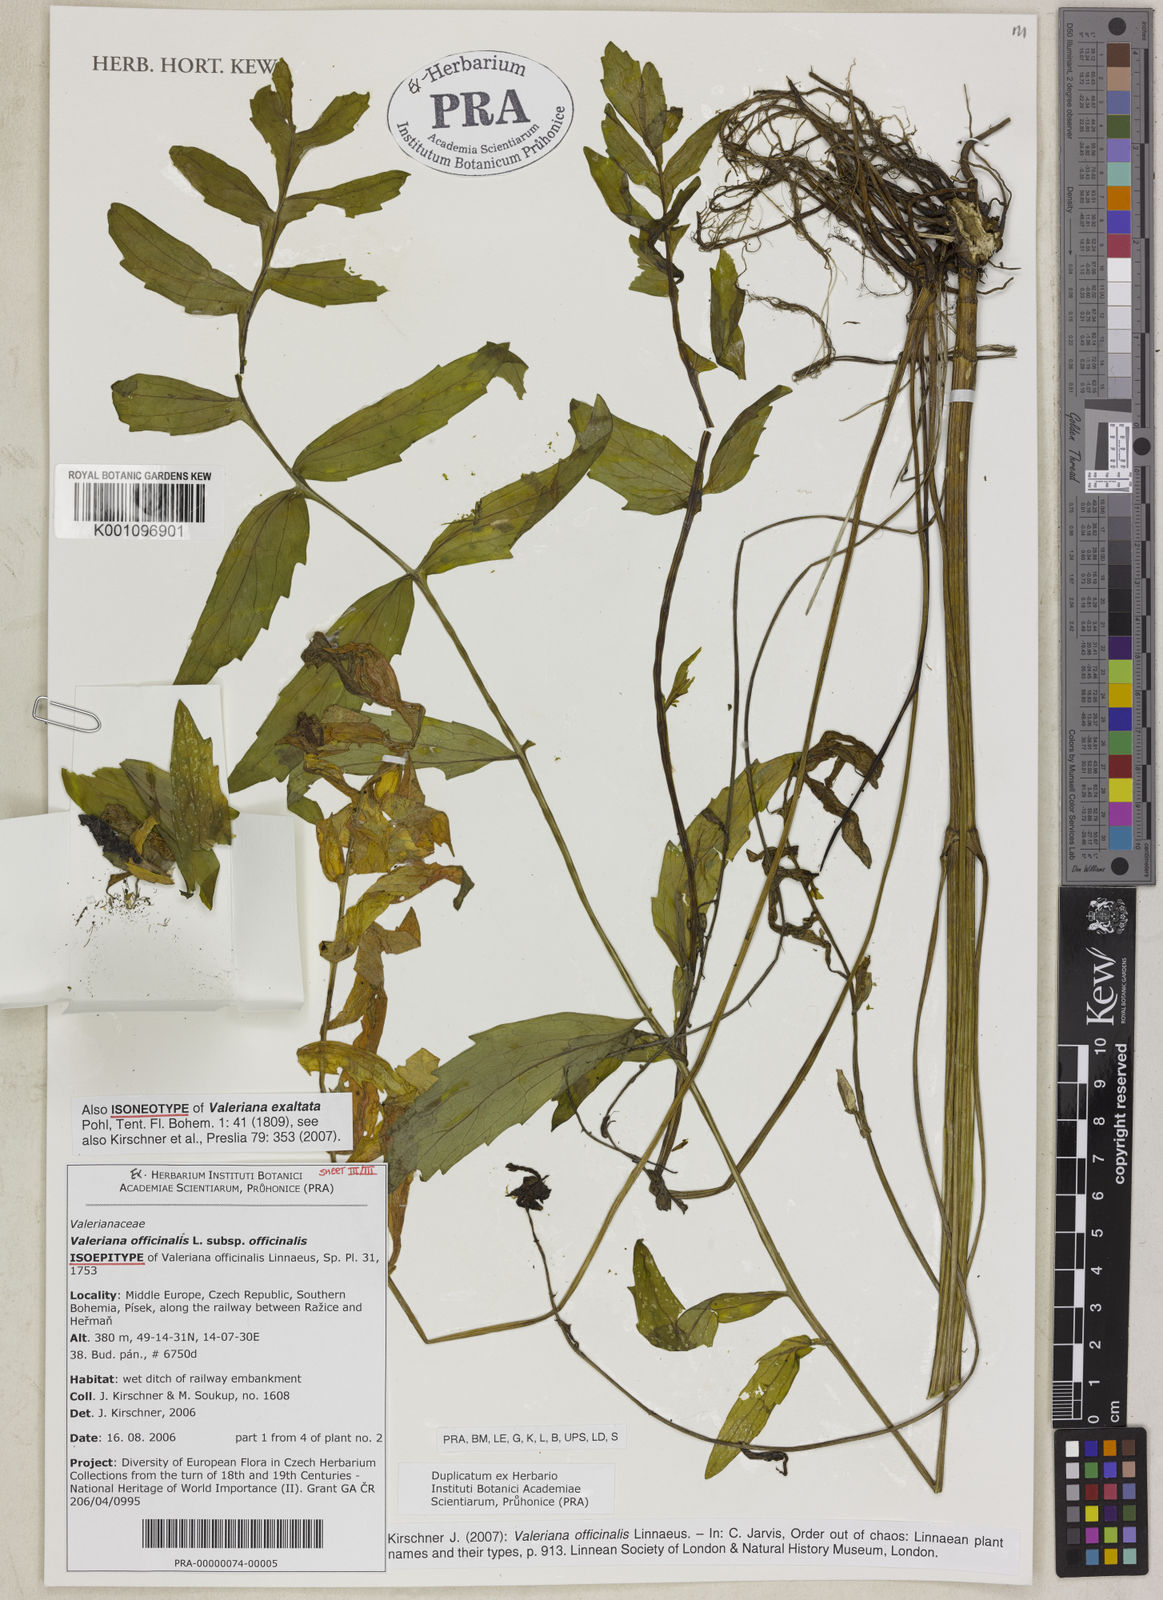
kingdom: Plantae
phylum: Tracheophyta
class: Magnoliopsida
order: Dipsacales
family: Caprifoliaceae
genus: Valeriana
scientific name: Valeriana officinalis
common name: Common valerian
